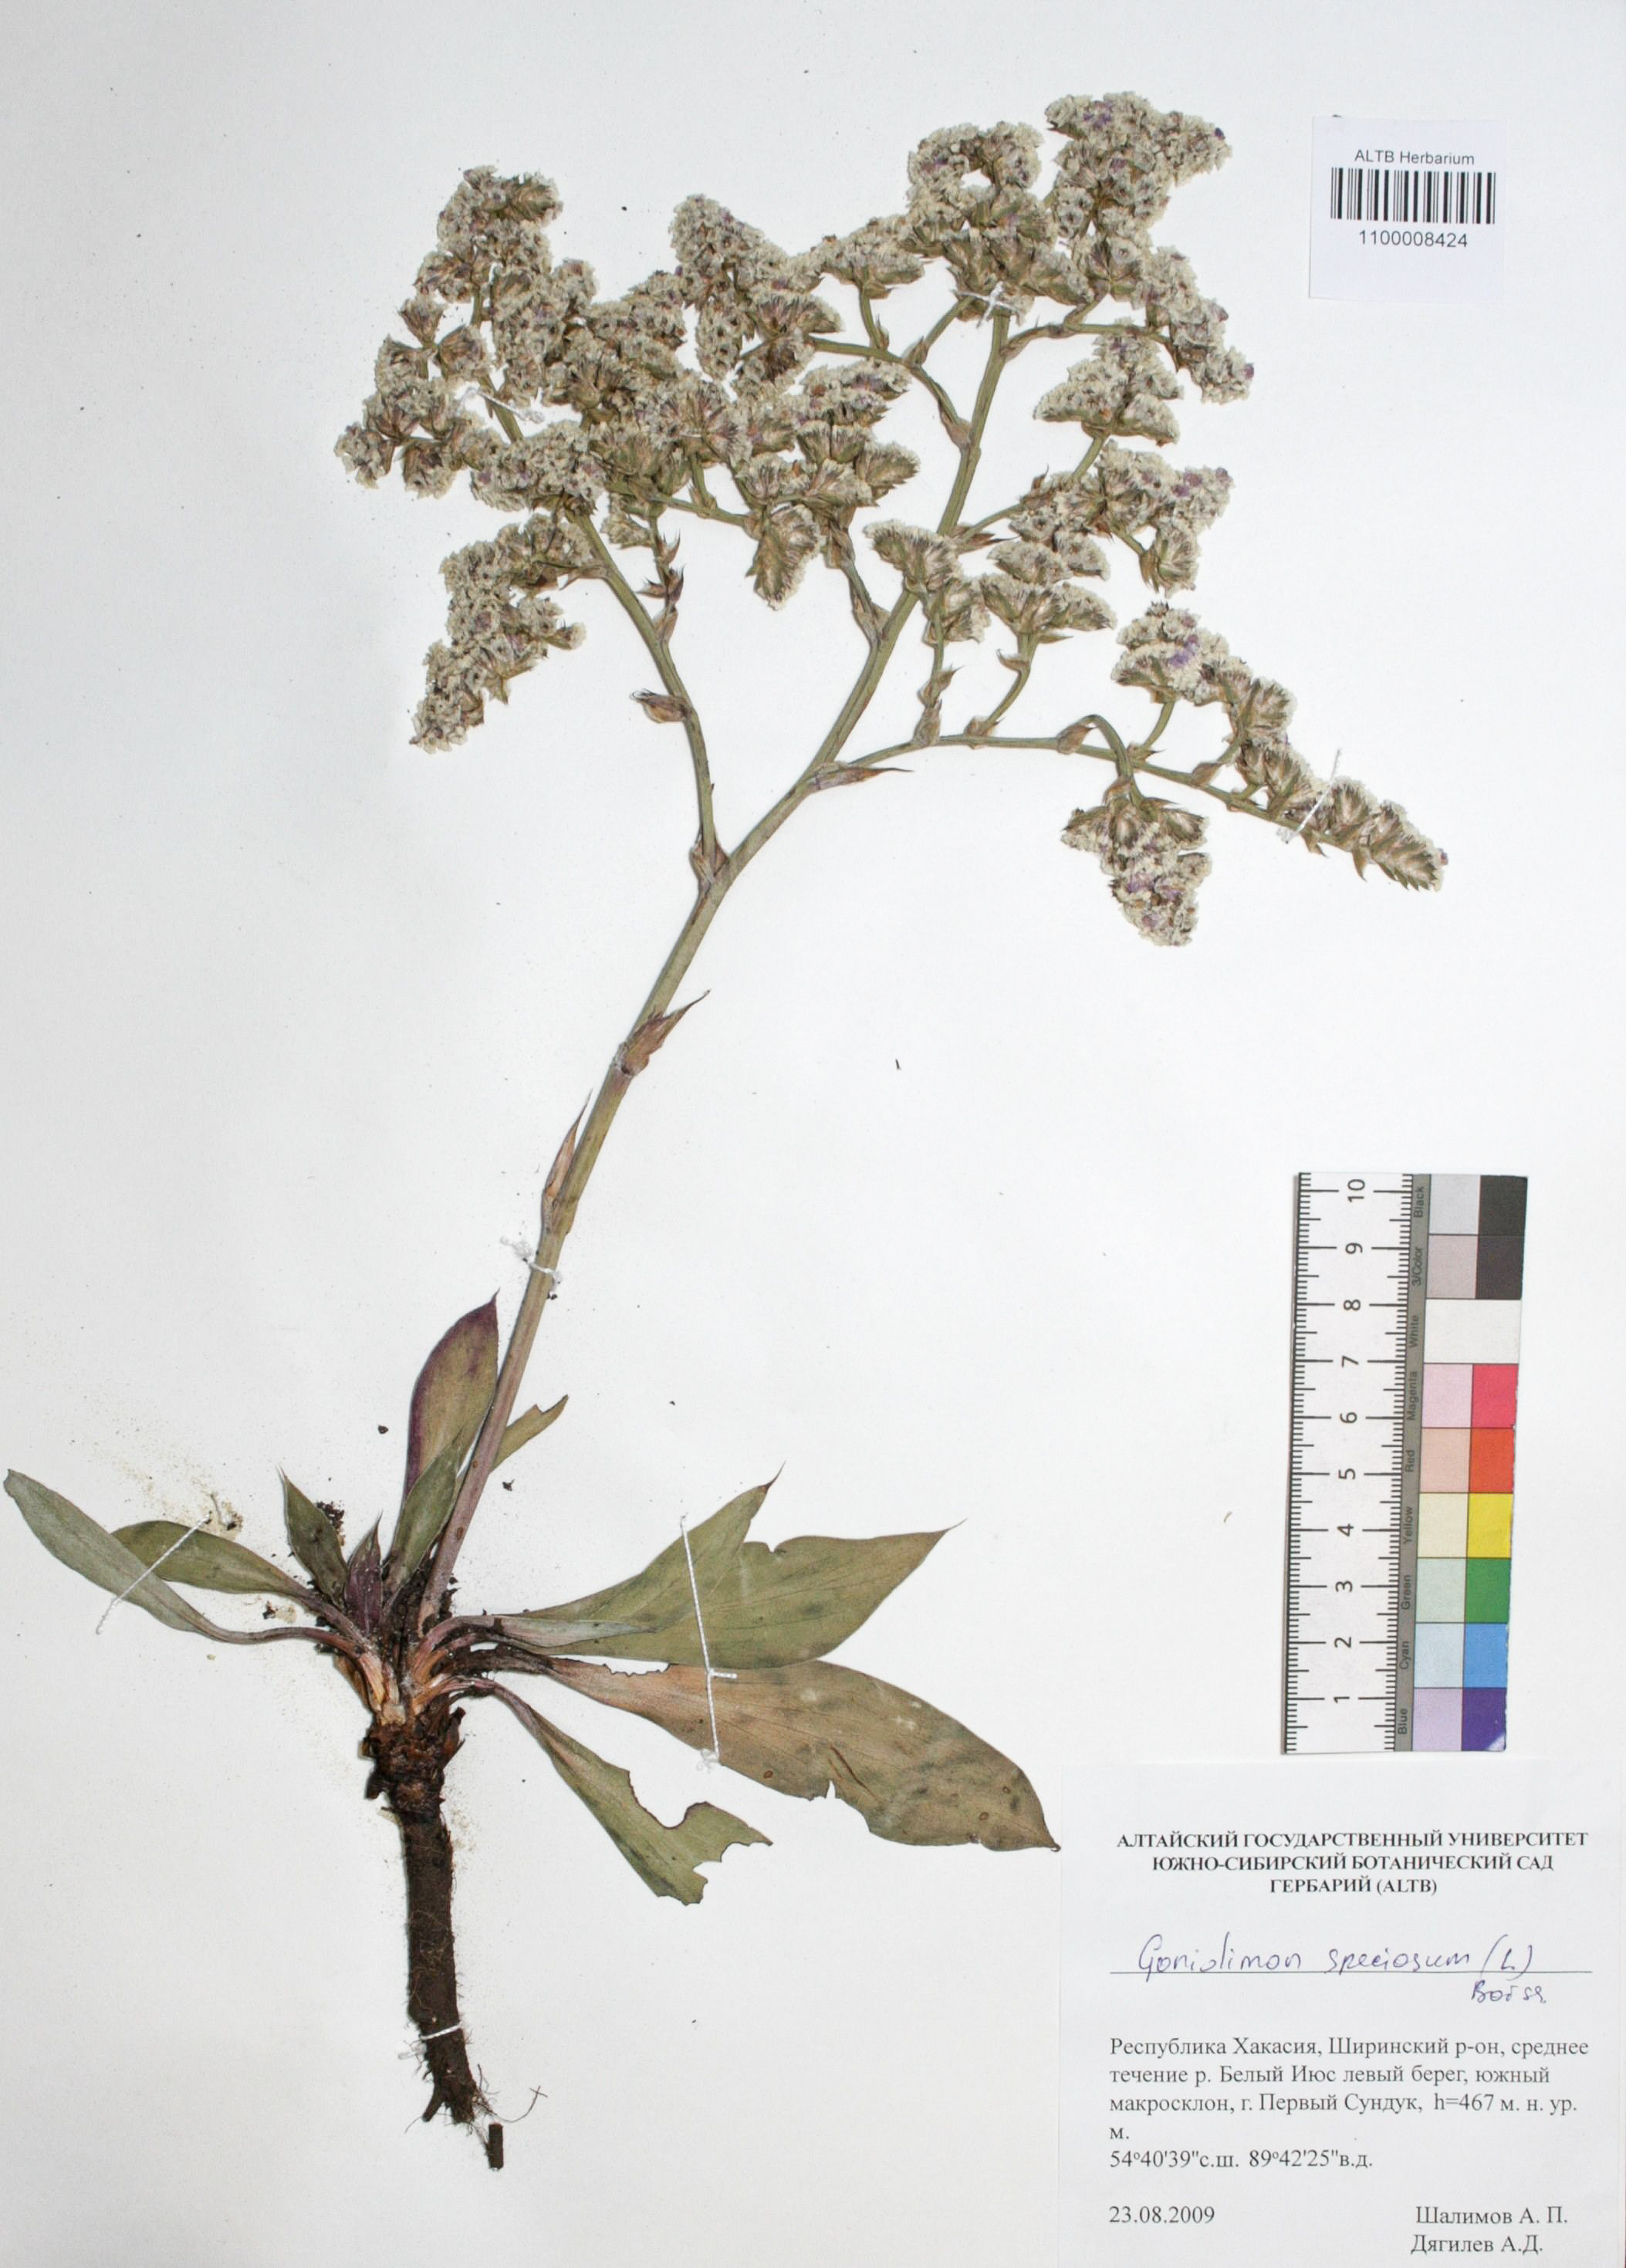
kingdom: Plantae
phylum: Tracheophyta
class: Magnoliopsida
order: Caryophyllales
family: Plumbaginaceae
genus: Goniolimon
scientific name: Goniolimon speciosum
